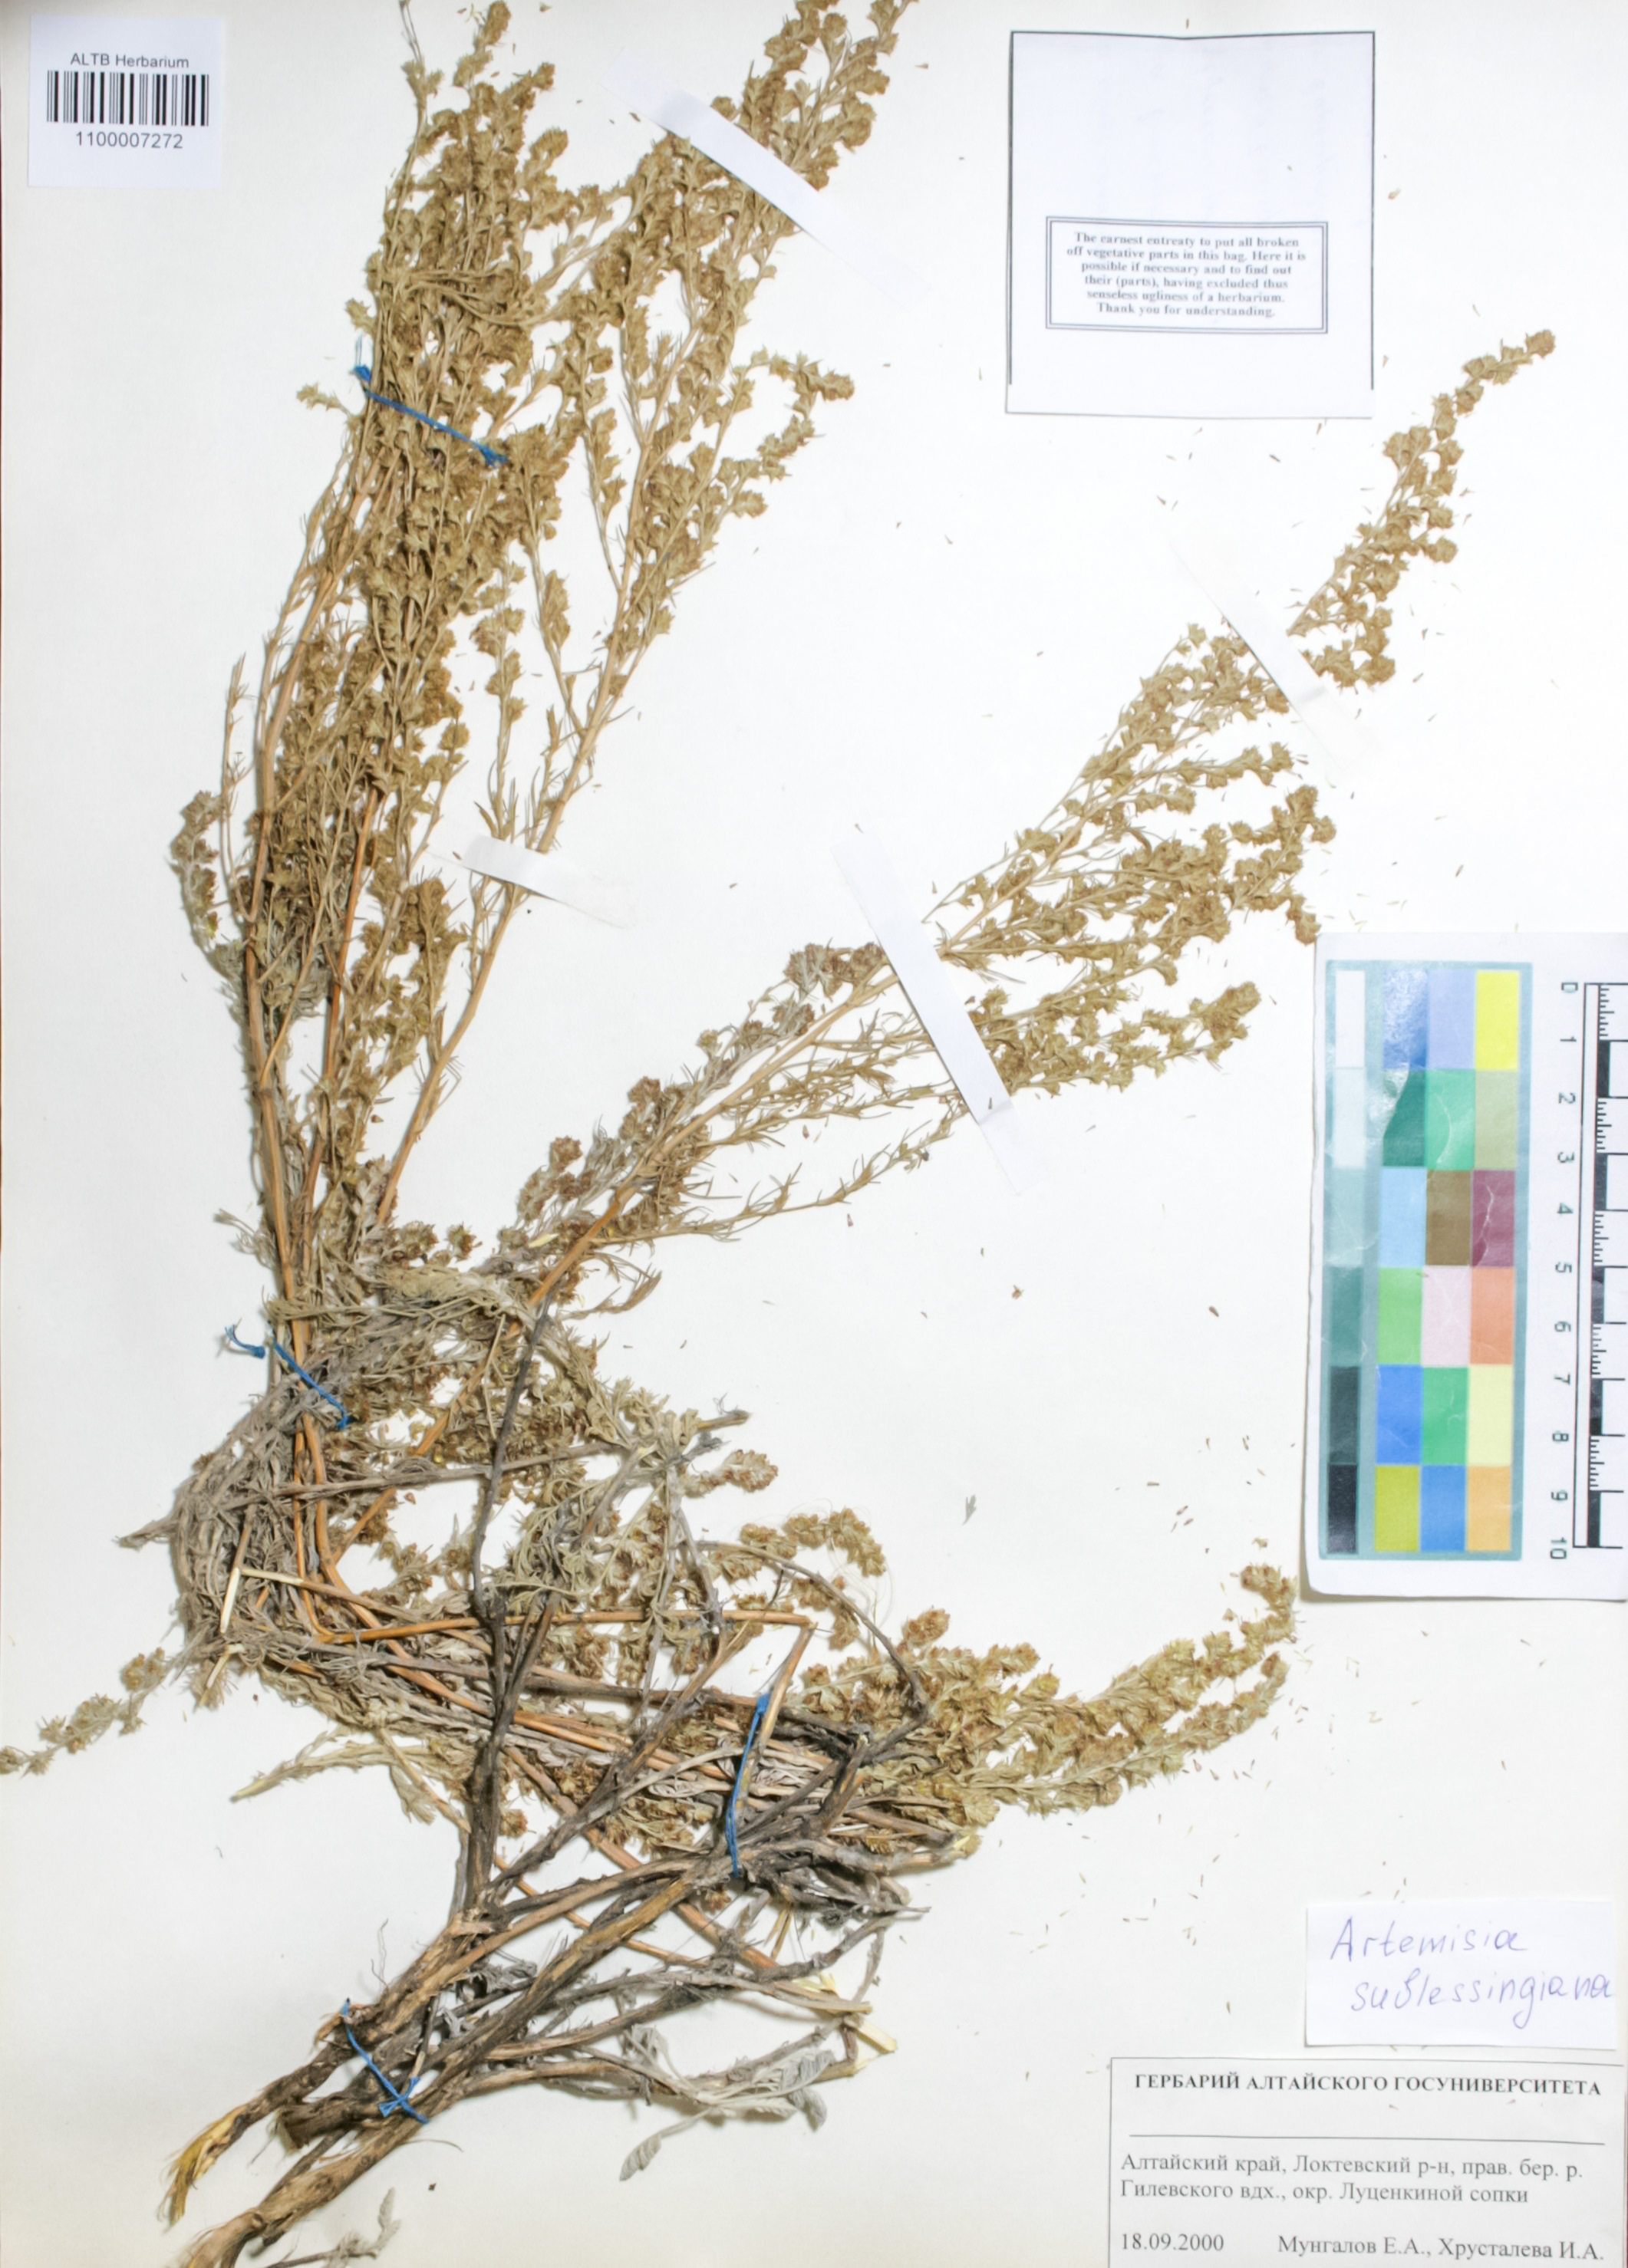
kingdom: Plantae
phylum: Tracheophyta
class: Magnoliopsida
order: Asterales
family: Asteraceae
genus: Artemisia
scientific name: Artemisia sublessingiana
